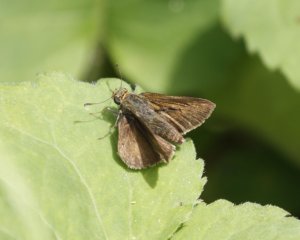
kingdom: Animalia
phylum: Arthropoda
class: Insecta
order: Lepidoptera
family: Hesperiidae
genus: Euphyes
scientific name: Euphyes vestris
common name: Dun Skipper
